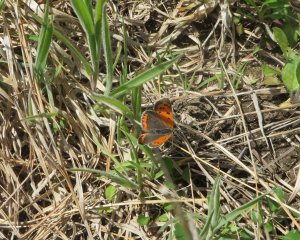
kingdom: Animalia
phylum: Arthropoda
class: Insecta
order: Lepidoptera
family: Lycaenidae
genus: Lycaena
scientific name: Lycaena phlaeas
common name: American Copper
